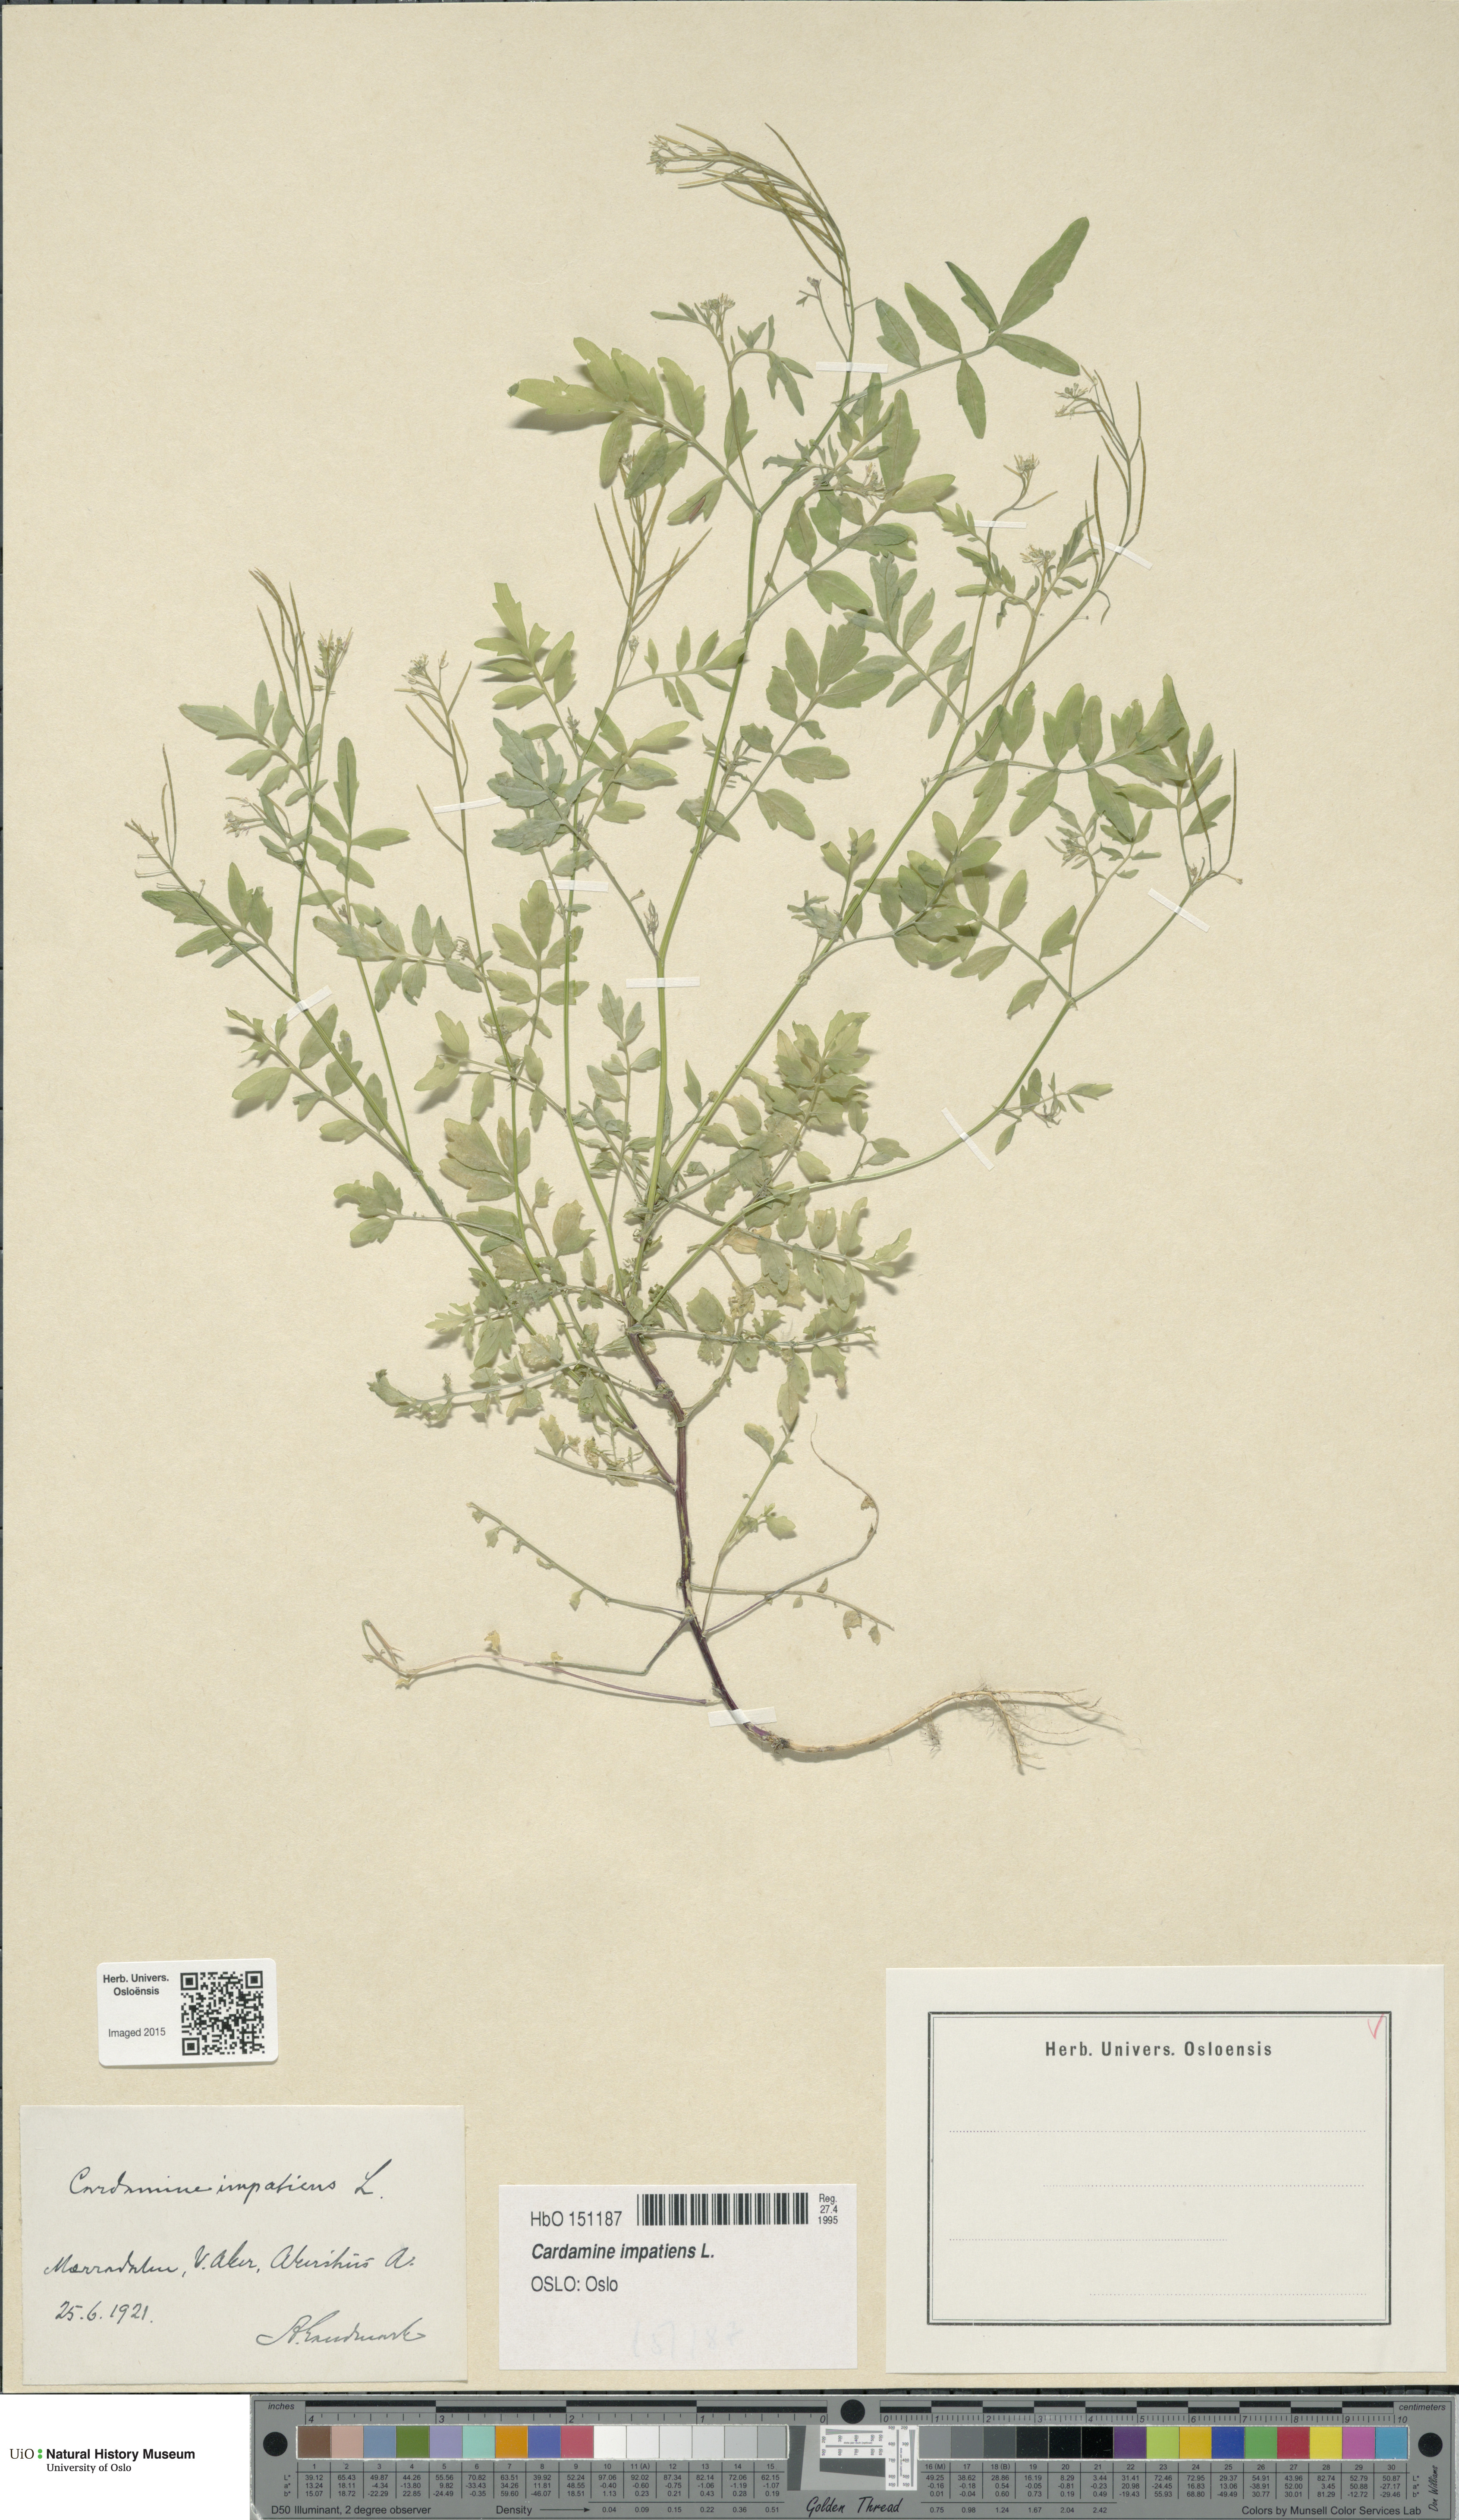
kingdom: Plantae
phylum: Tracheophyta
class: Magnoliopsida
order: Brassicales
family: Brassicaceae
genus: Cardamine
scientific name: Cardamine impatiens
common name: Narrow-leaved bitter-cress
